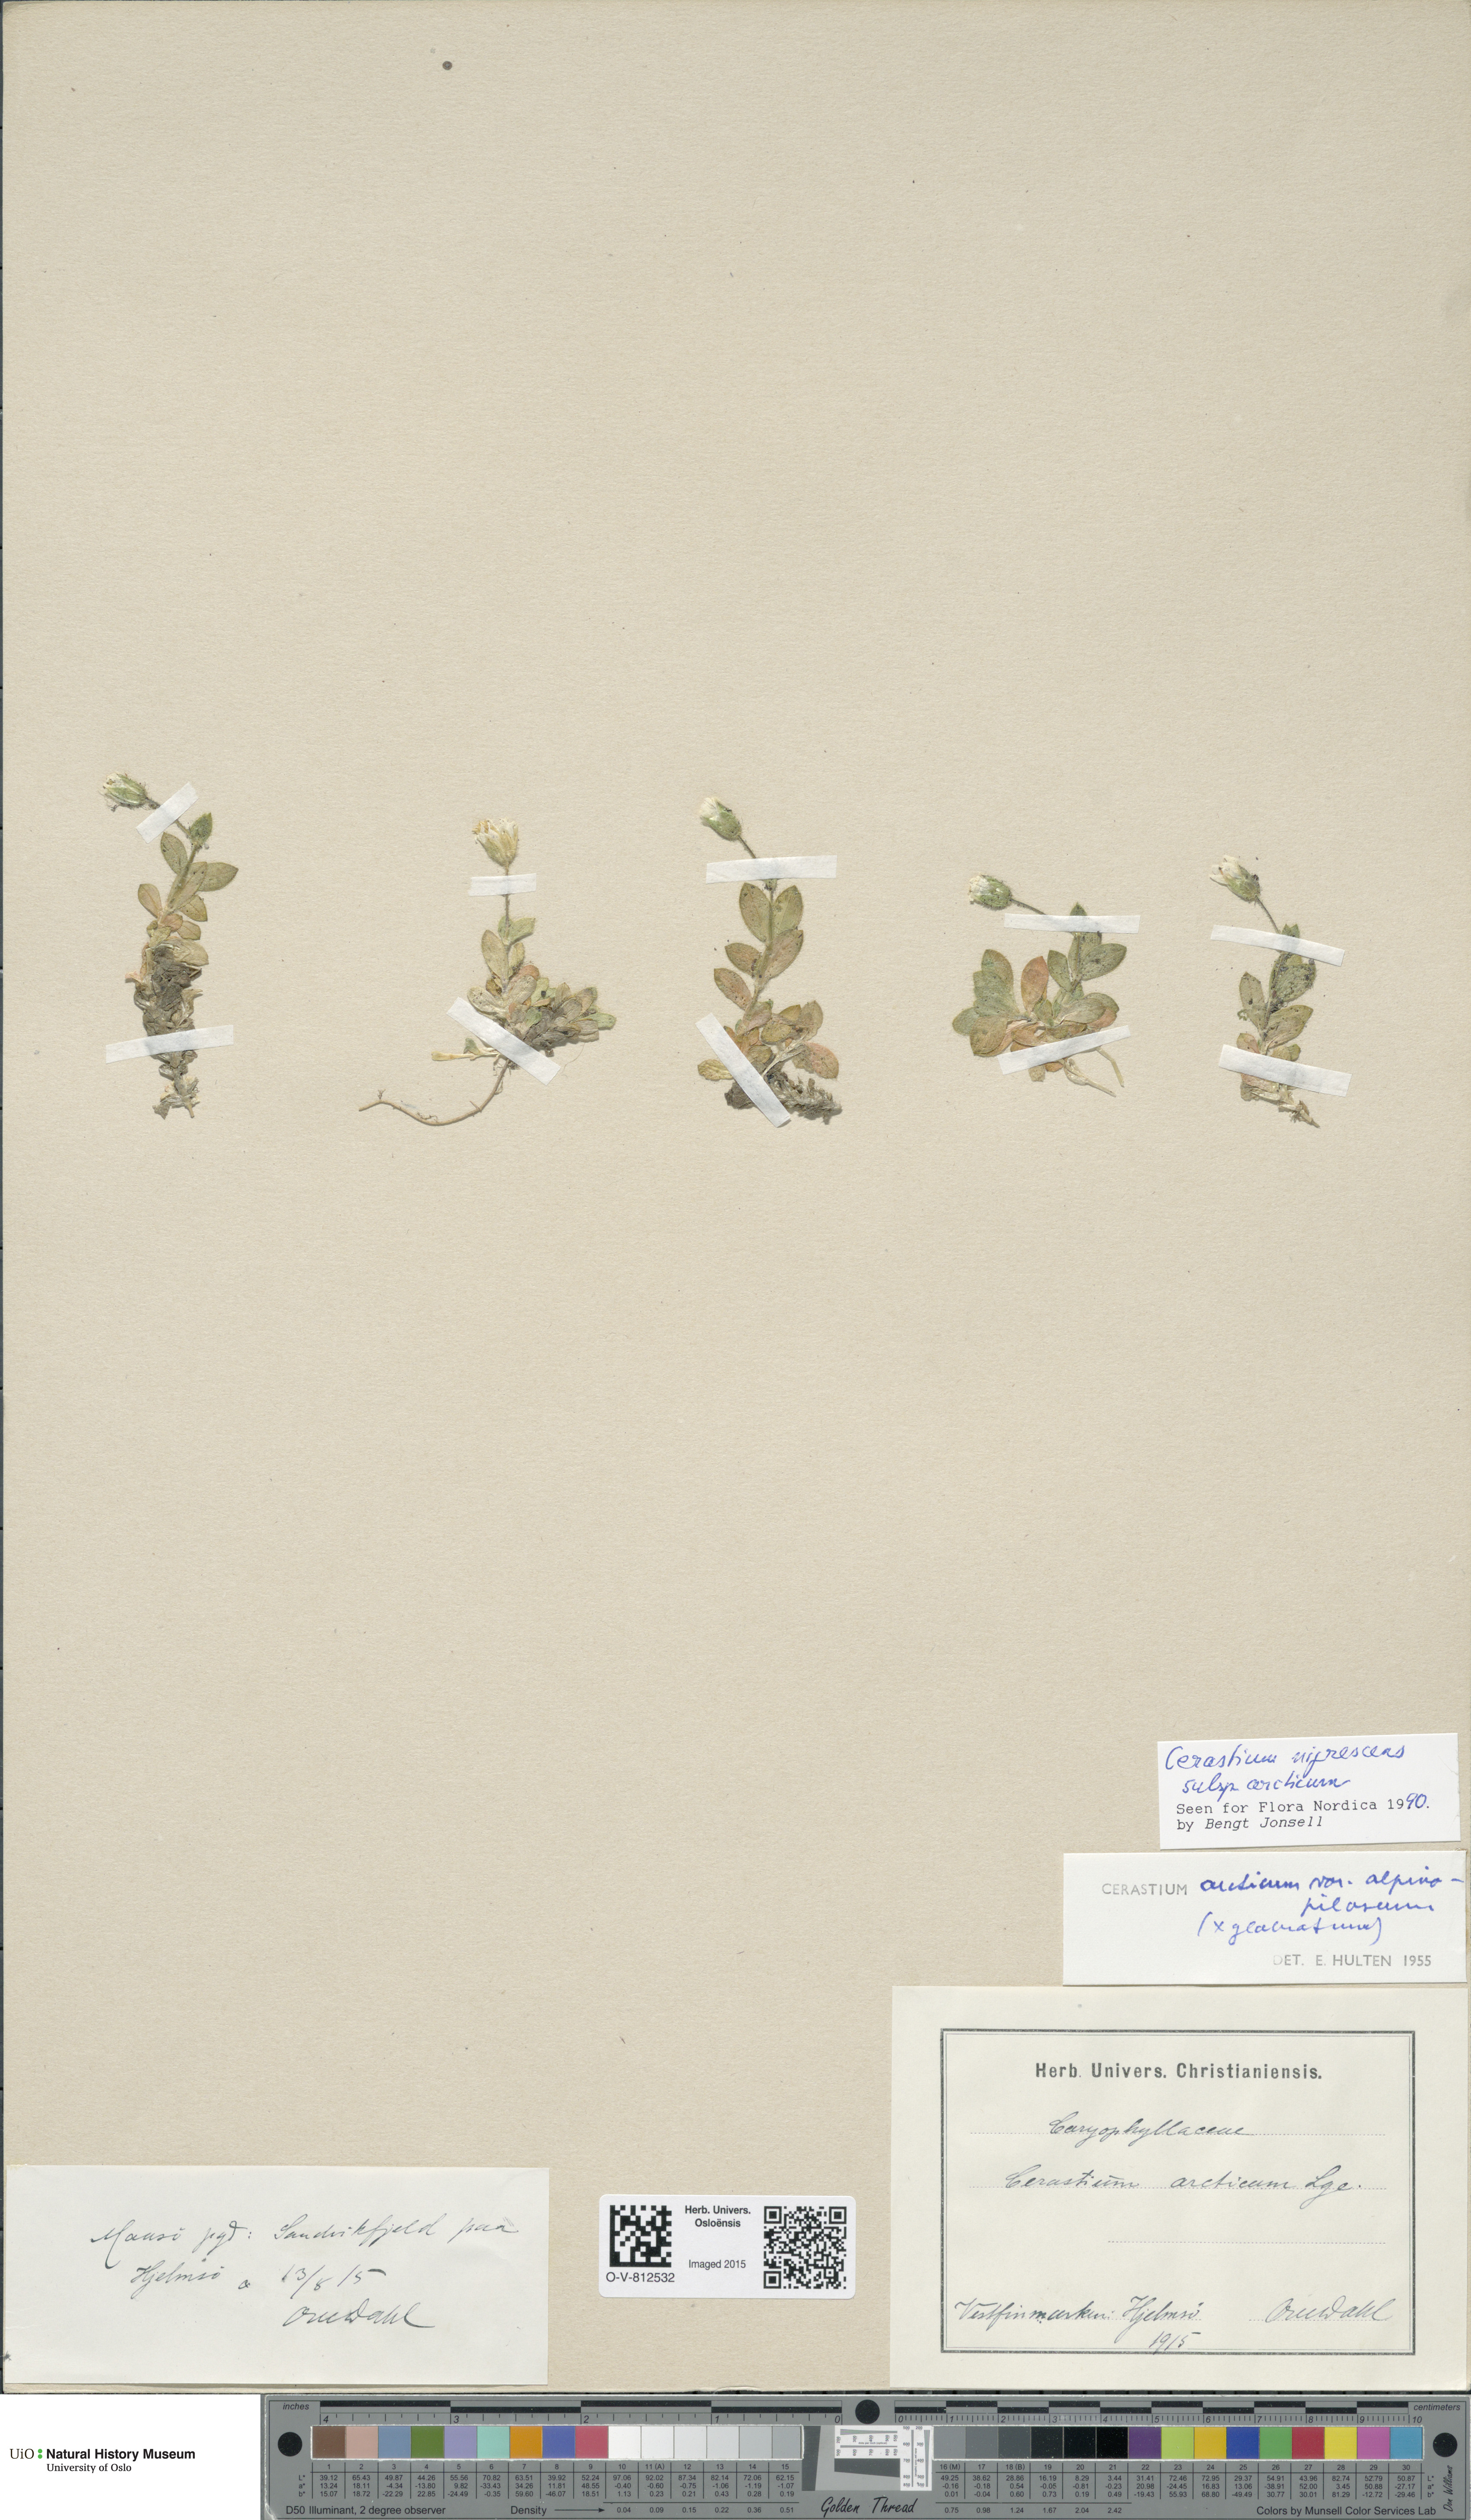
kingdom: Plantae
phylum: Tracheophyta
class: Magnoliopsida
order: Caryophyllales
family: Caryophyllaceae
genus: Cerastium
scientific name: Cerastium arcticum
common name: Arctic mouse-ear
